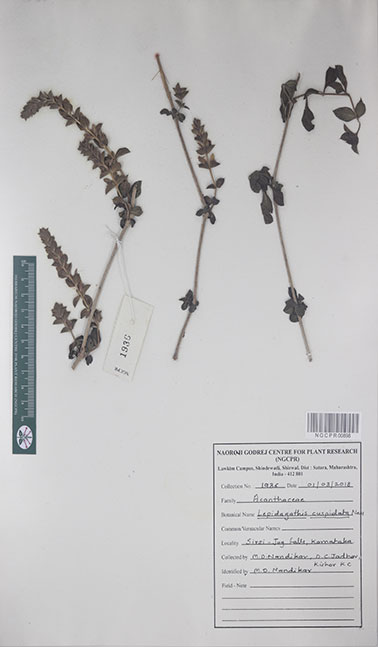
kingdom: Plantae
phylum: Tracheophyta
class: Magnoliopsida
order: Lamiales
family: Acanthaceae
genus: Lepidagathis
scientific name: Lepidagathis cuspidata
